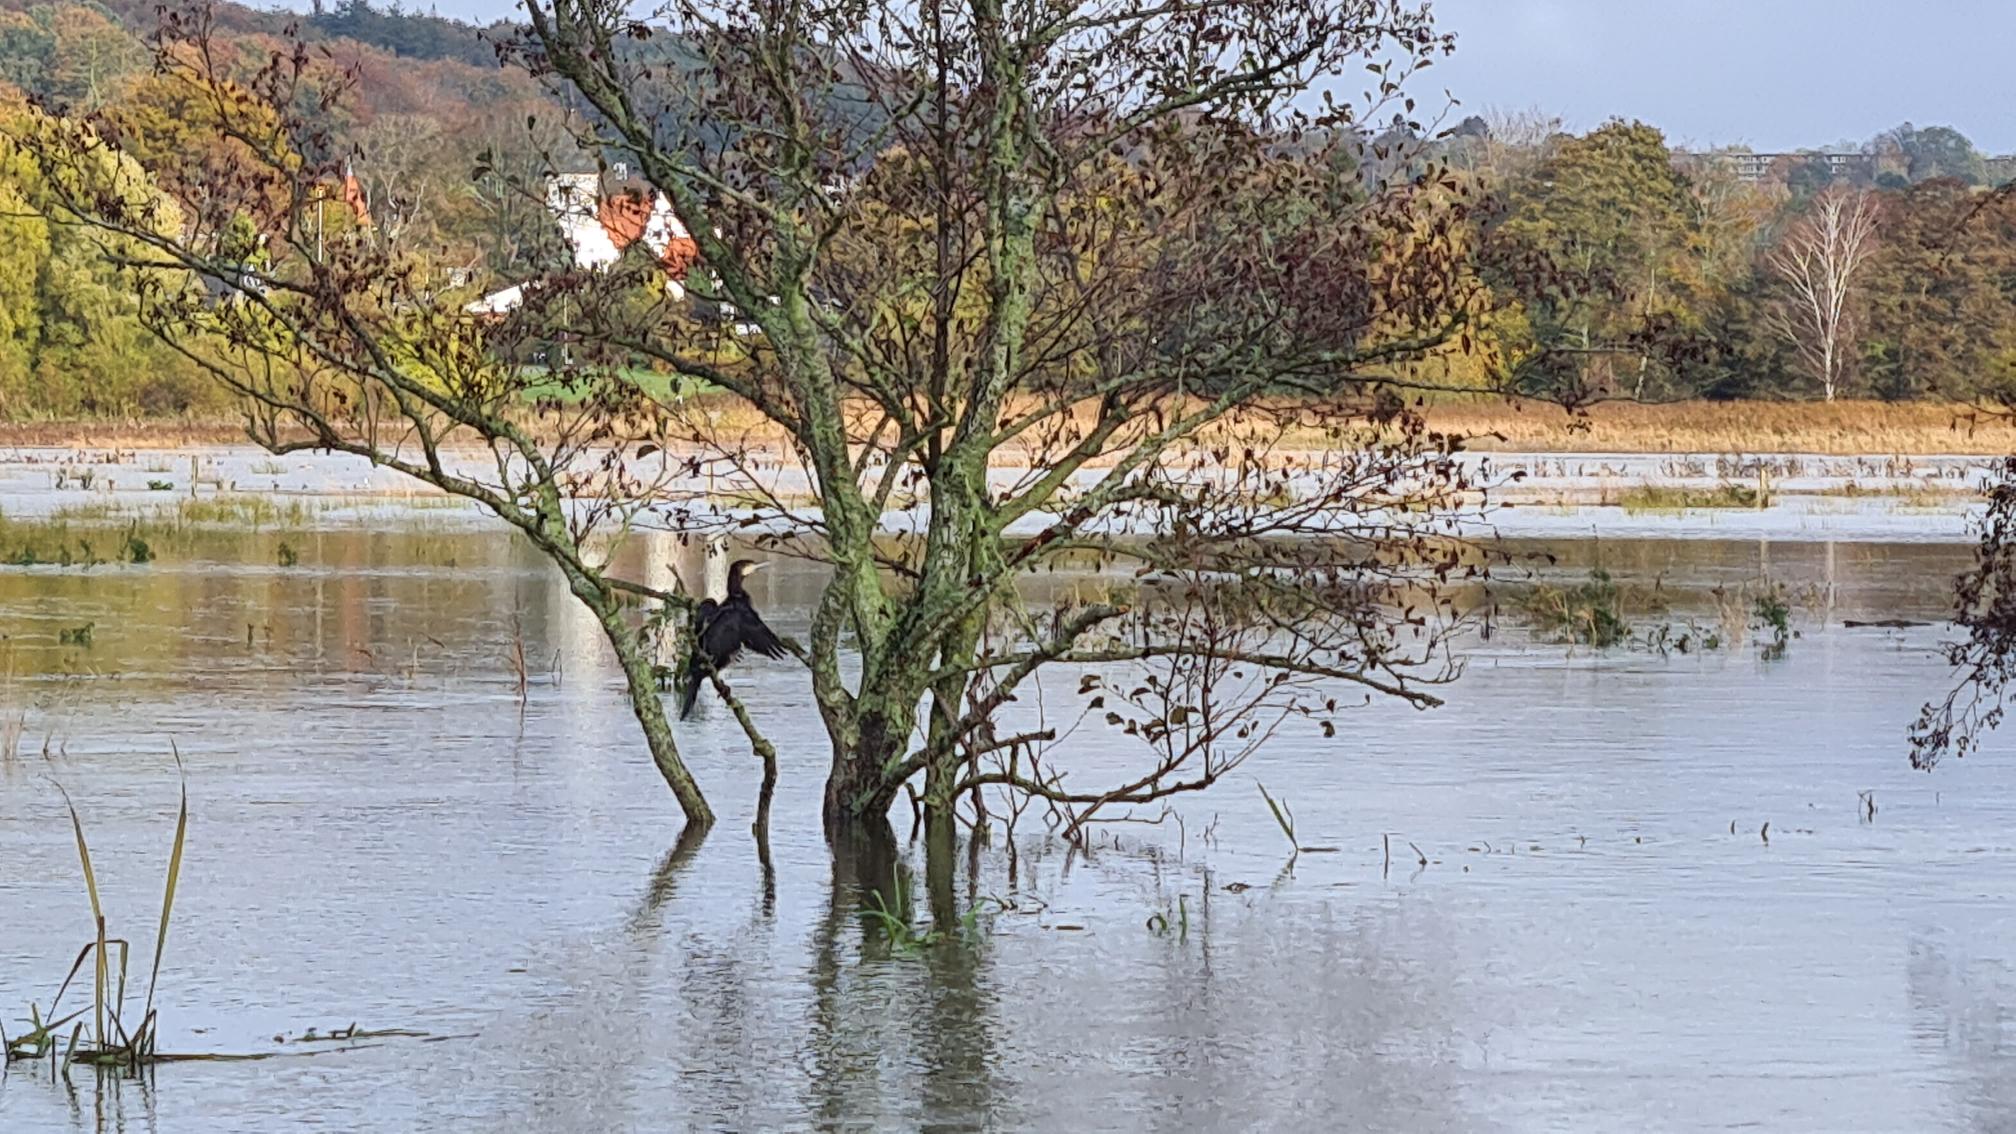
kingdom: Animalia
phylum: Chordata
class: Aves
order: Suliformes
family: Phalacrocoracidae
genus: Phalacrocorax
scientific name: Phalacrocorax carbo
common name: Skarv
